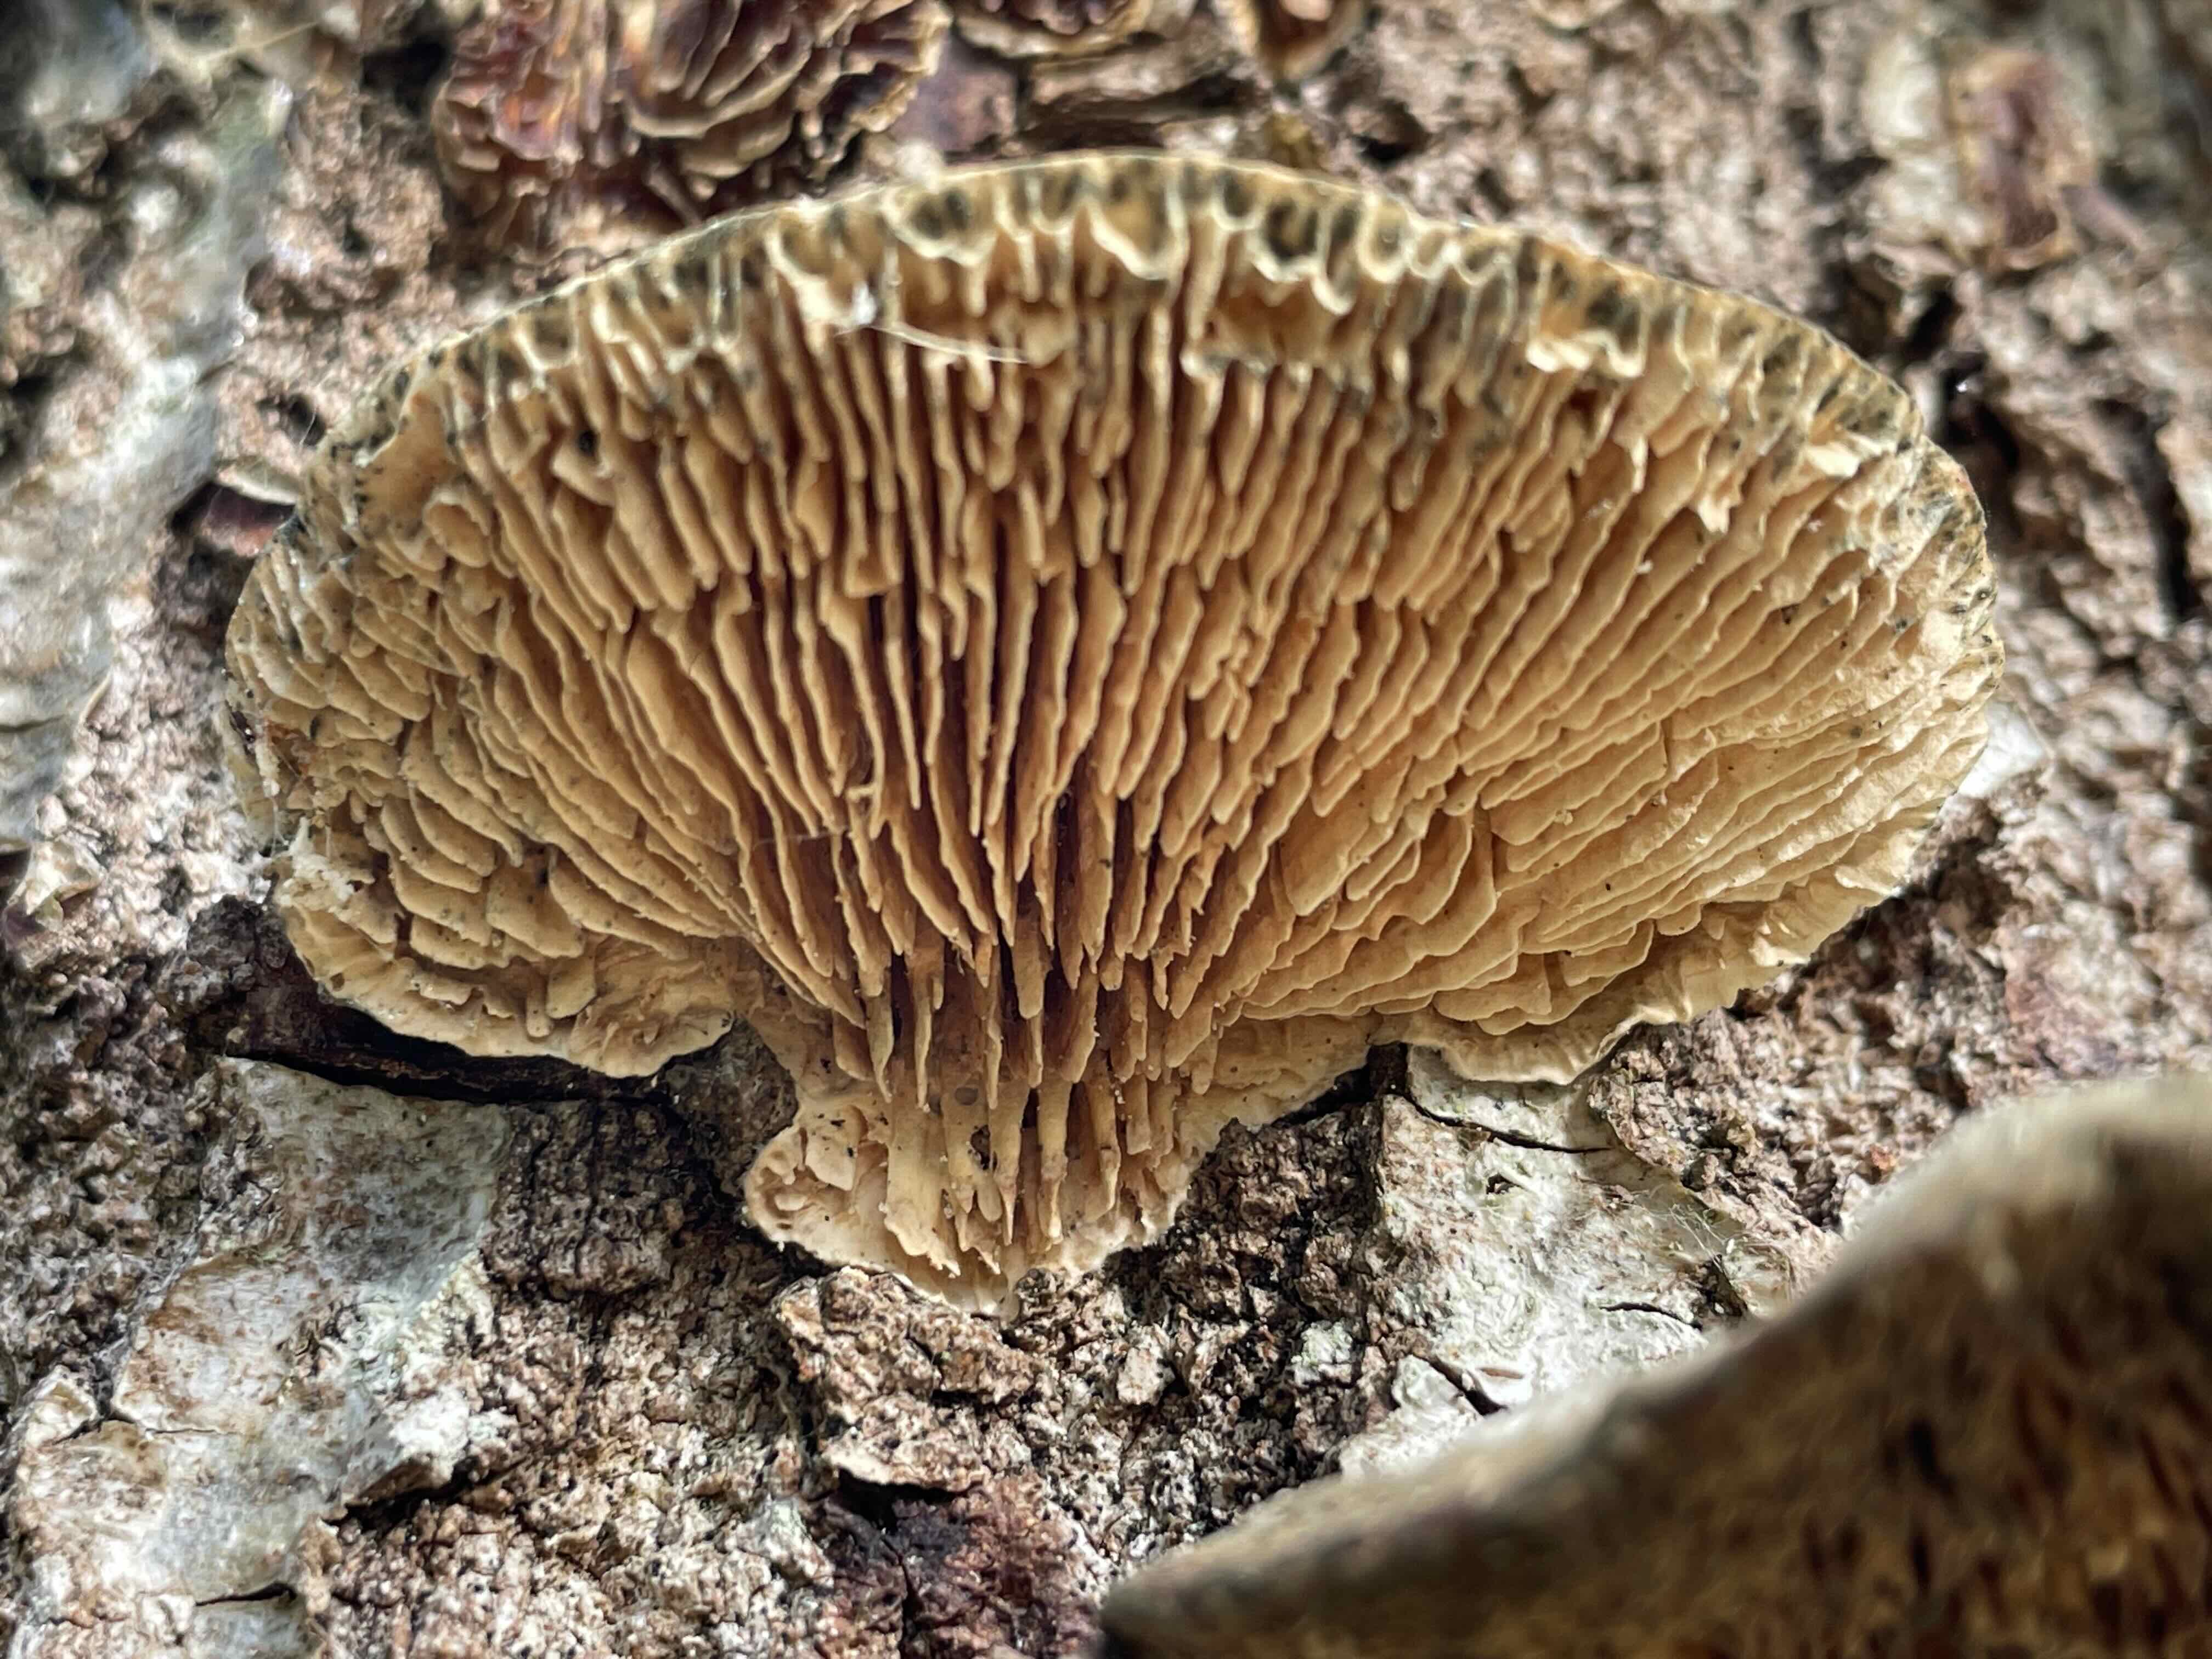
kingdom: Fungi
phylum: Basidiomycota
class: Agaricomycetes
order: Polyporales
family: Polyporaceae
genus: Lenzites
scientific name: Lenzites betulinus
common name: birke-læderporesvamp
